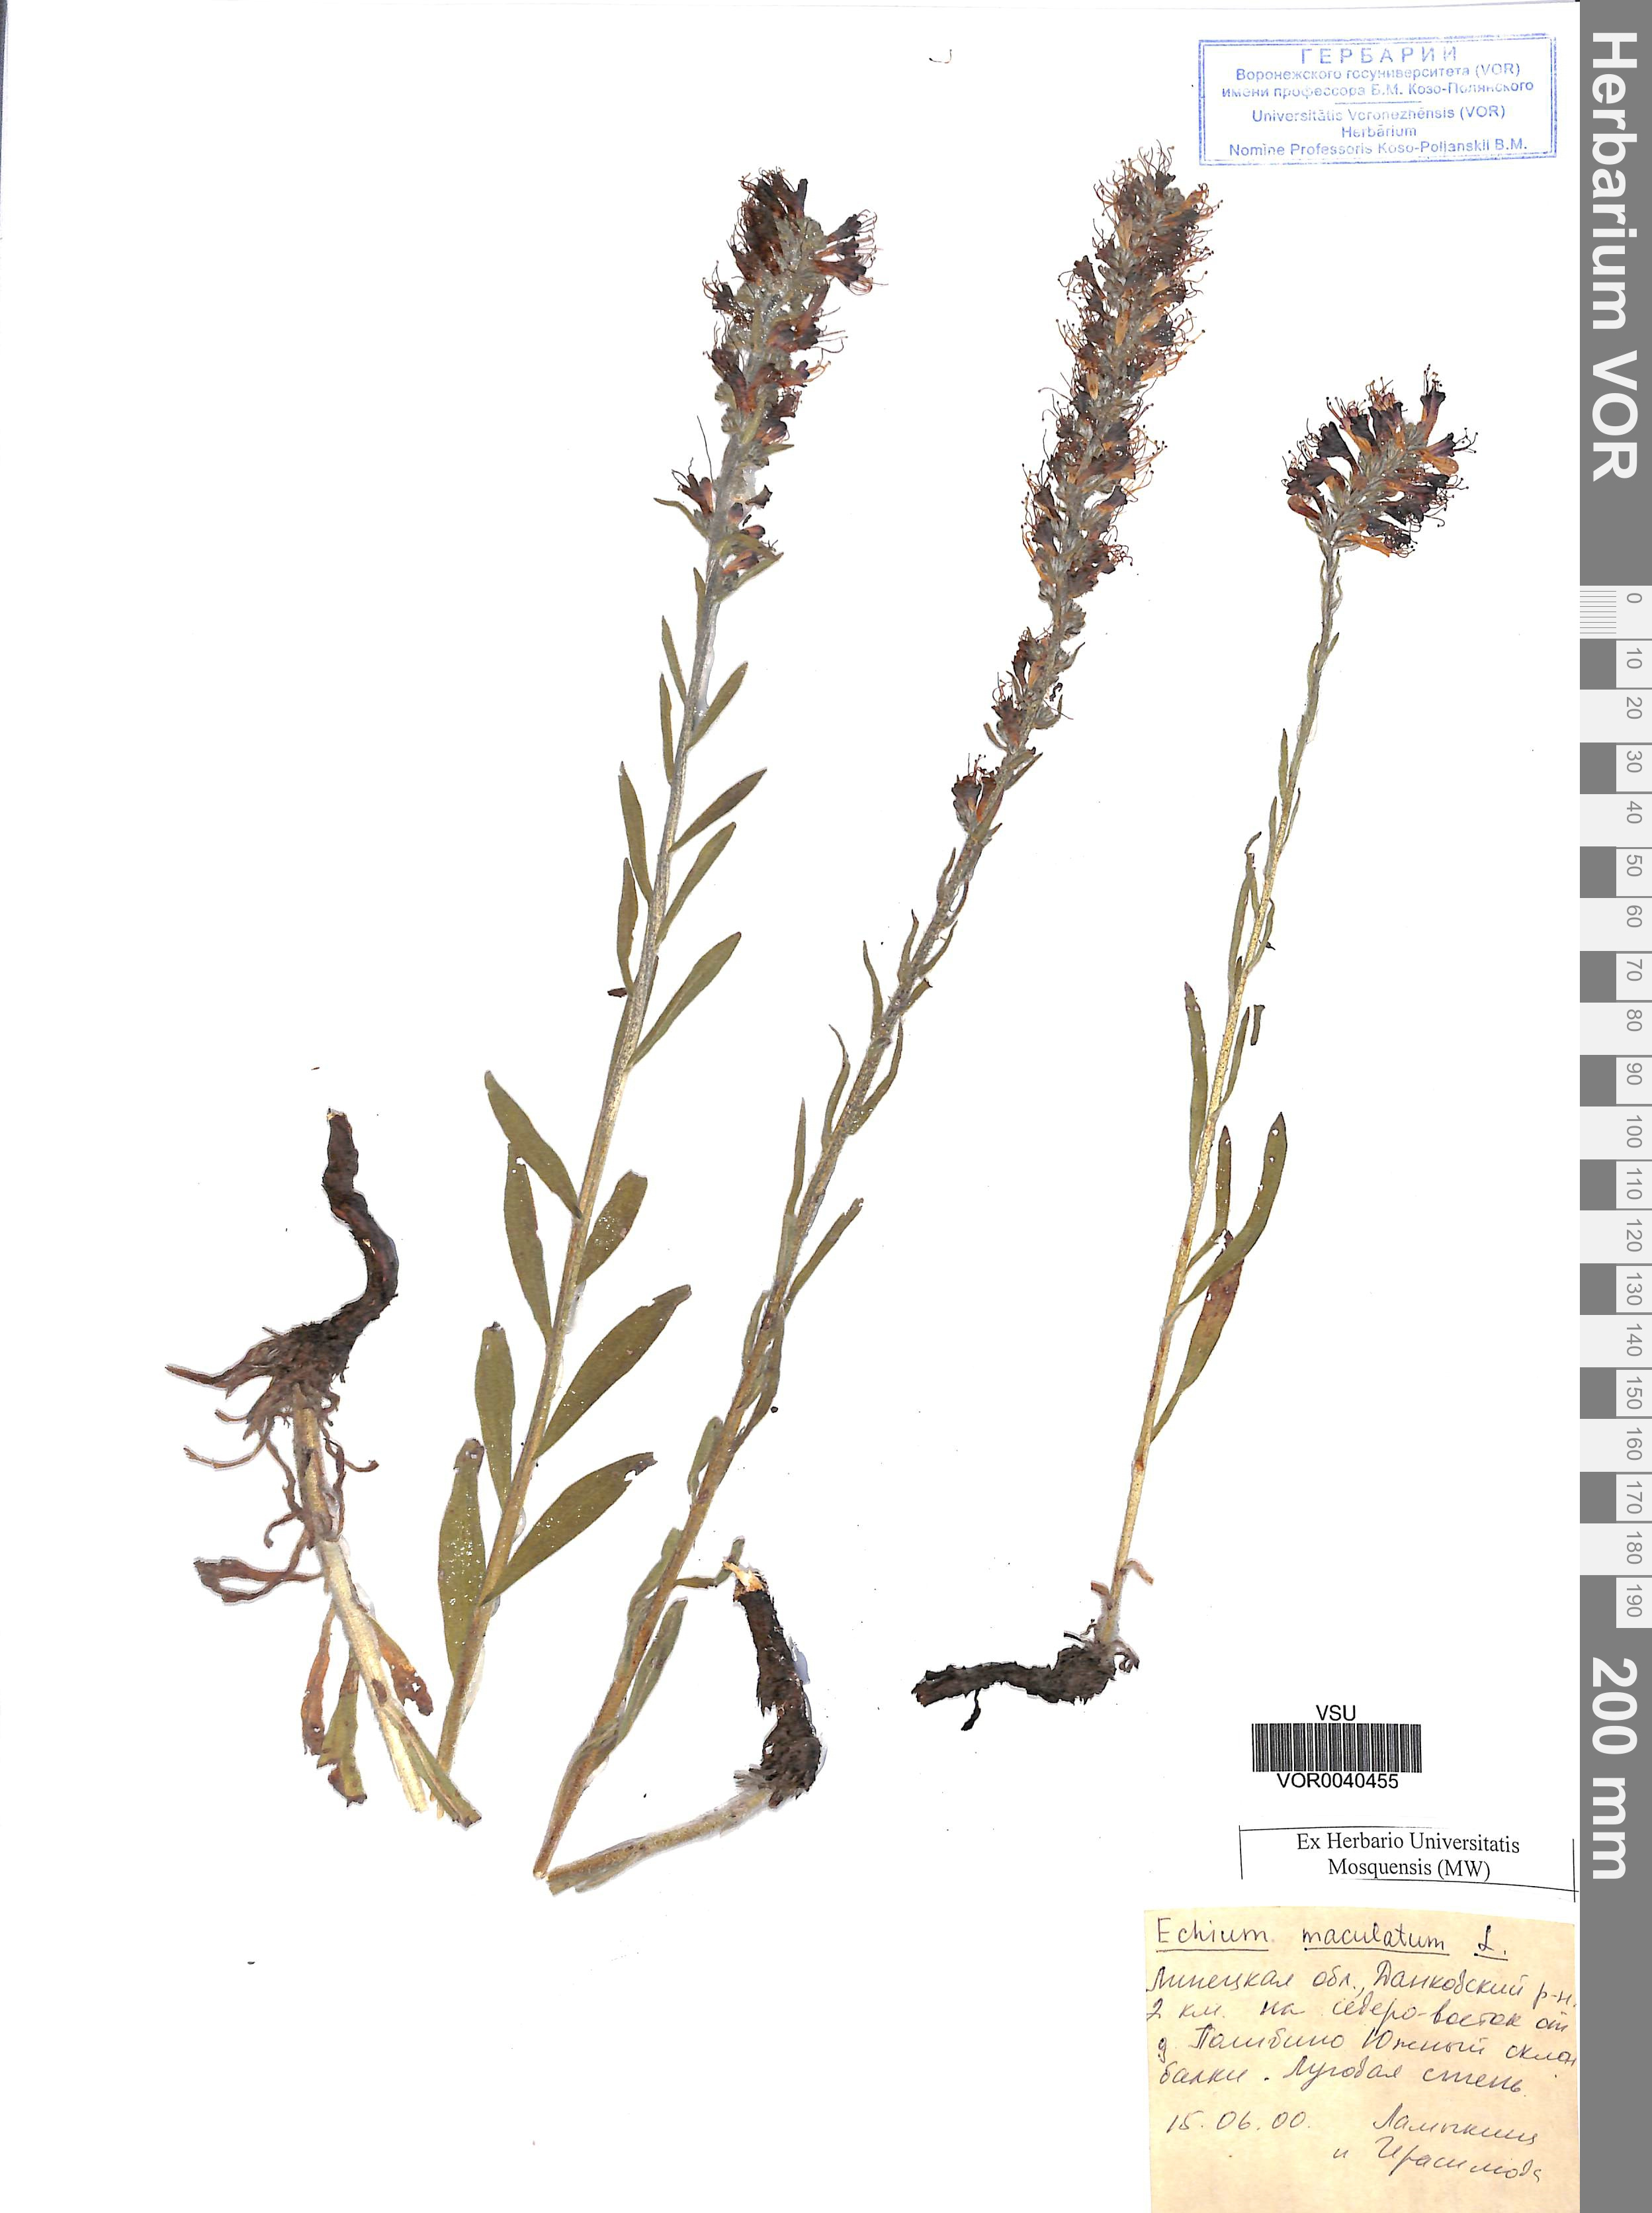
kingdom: Plantae
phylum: Tracheophyta
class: Magnoliopsida
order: Boraginales
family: Boraginaceae
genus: Pontechium
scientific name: Pontechium maculatum
